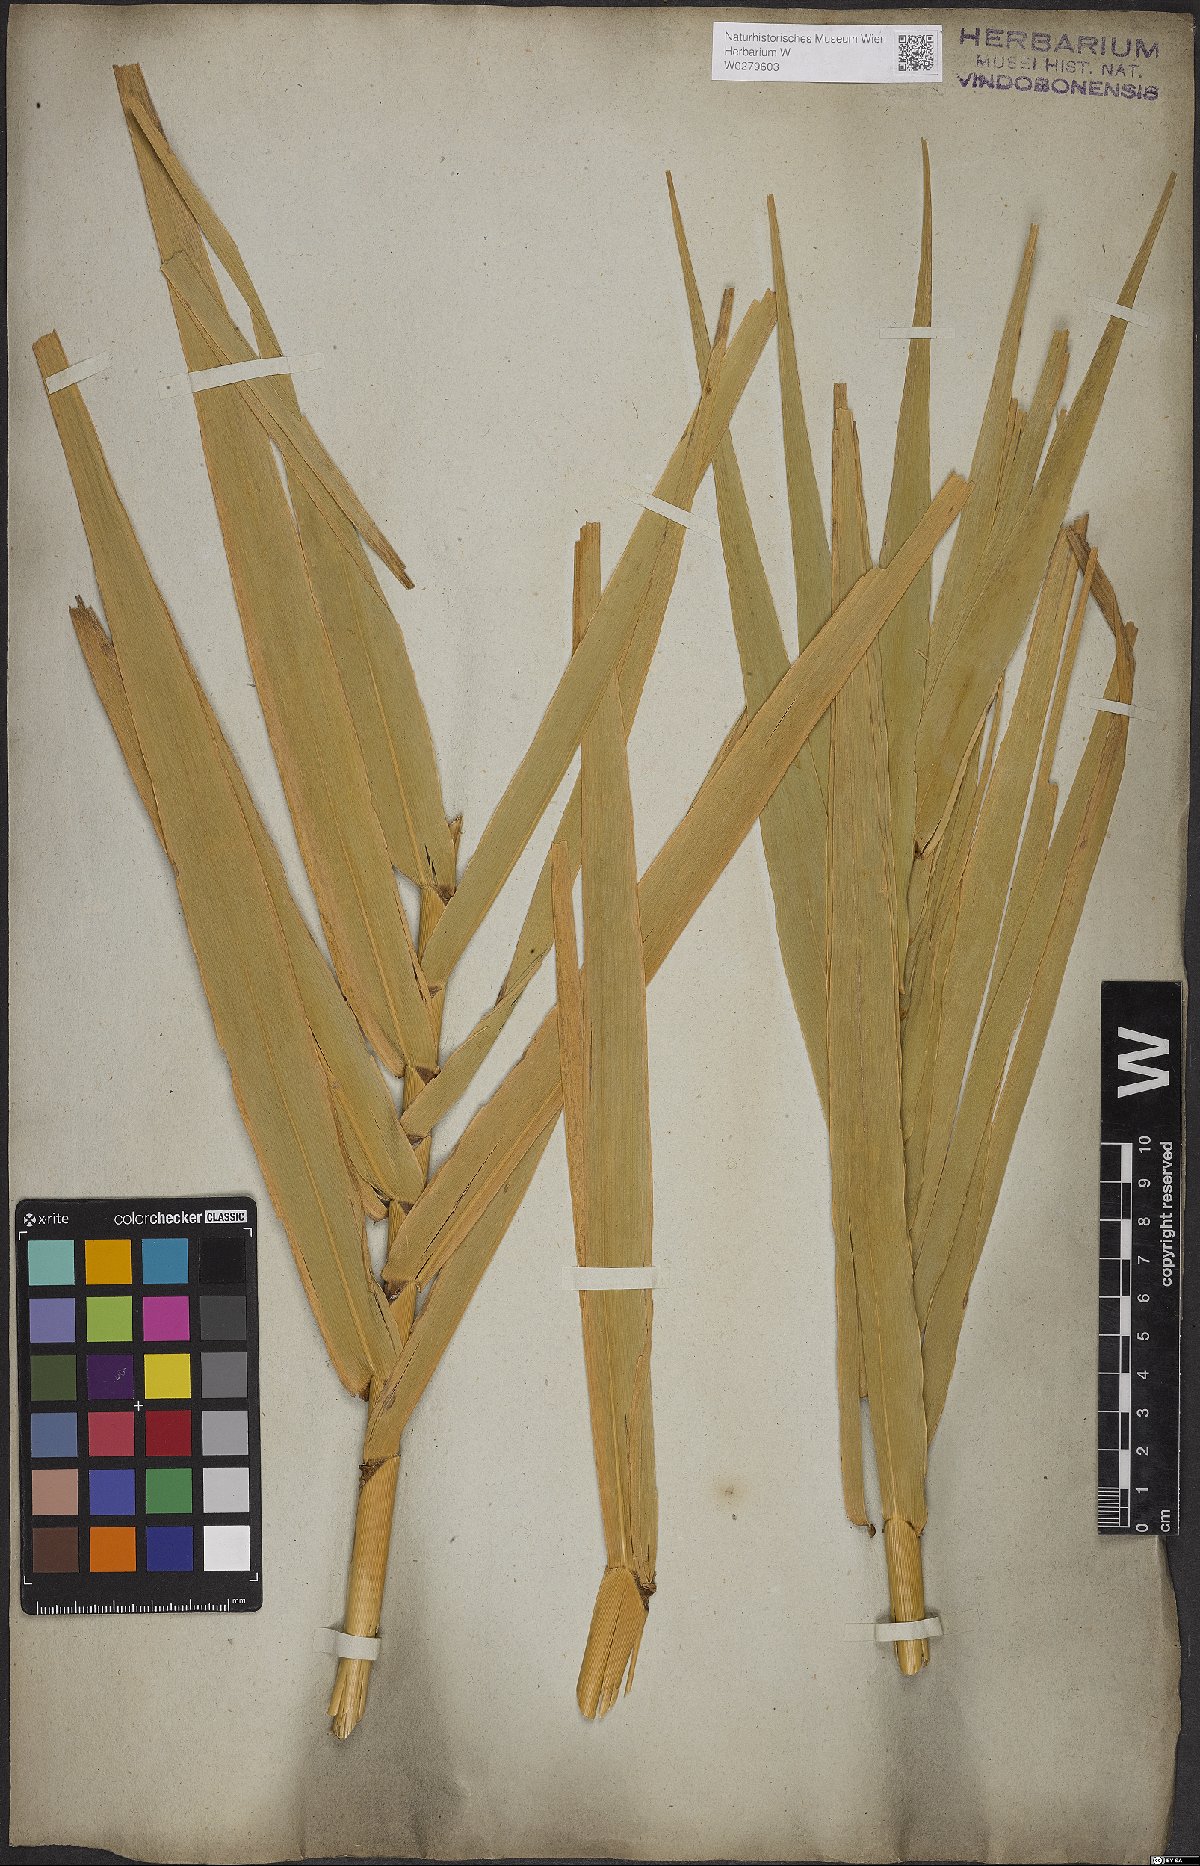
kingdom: Plantae
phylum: Tracheophyta
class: Liliopsida
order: Poales
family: Poaceae
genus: Arundo
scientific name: Arundo donax
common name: Giant reed
